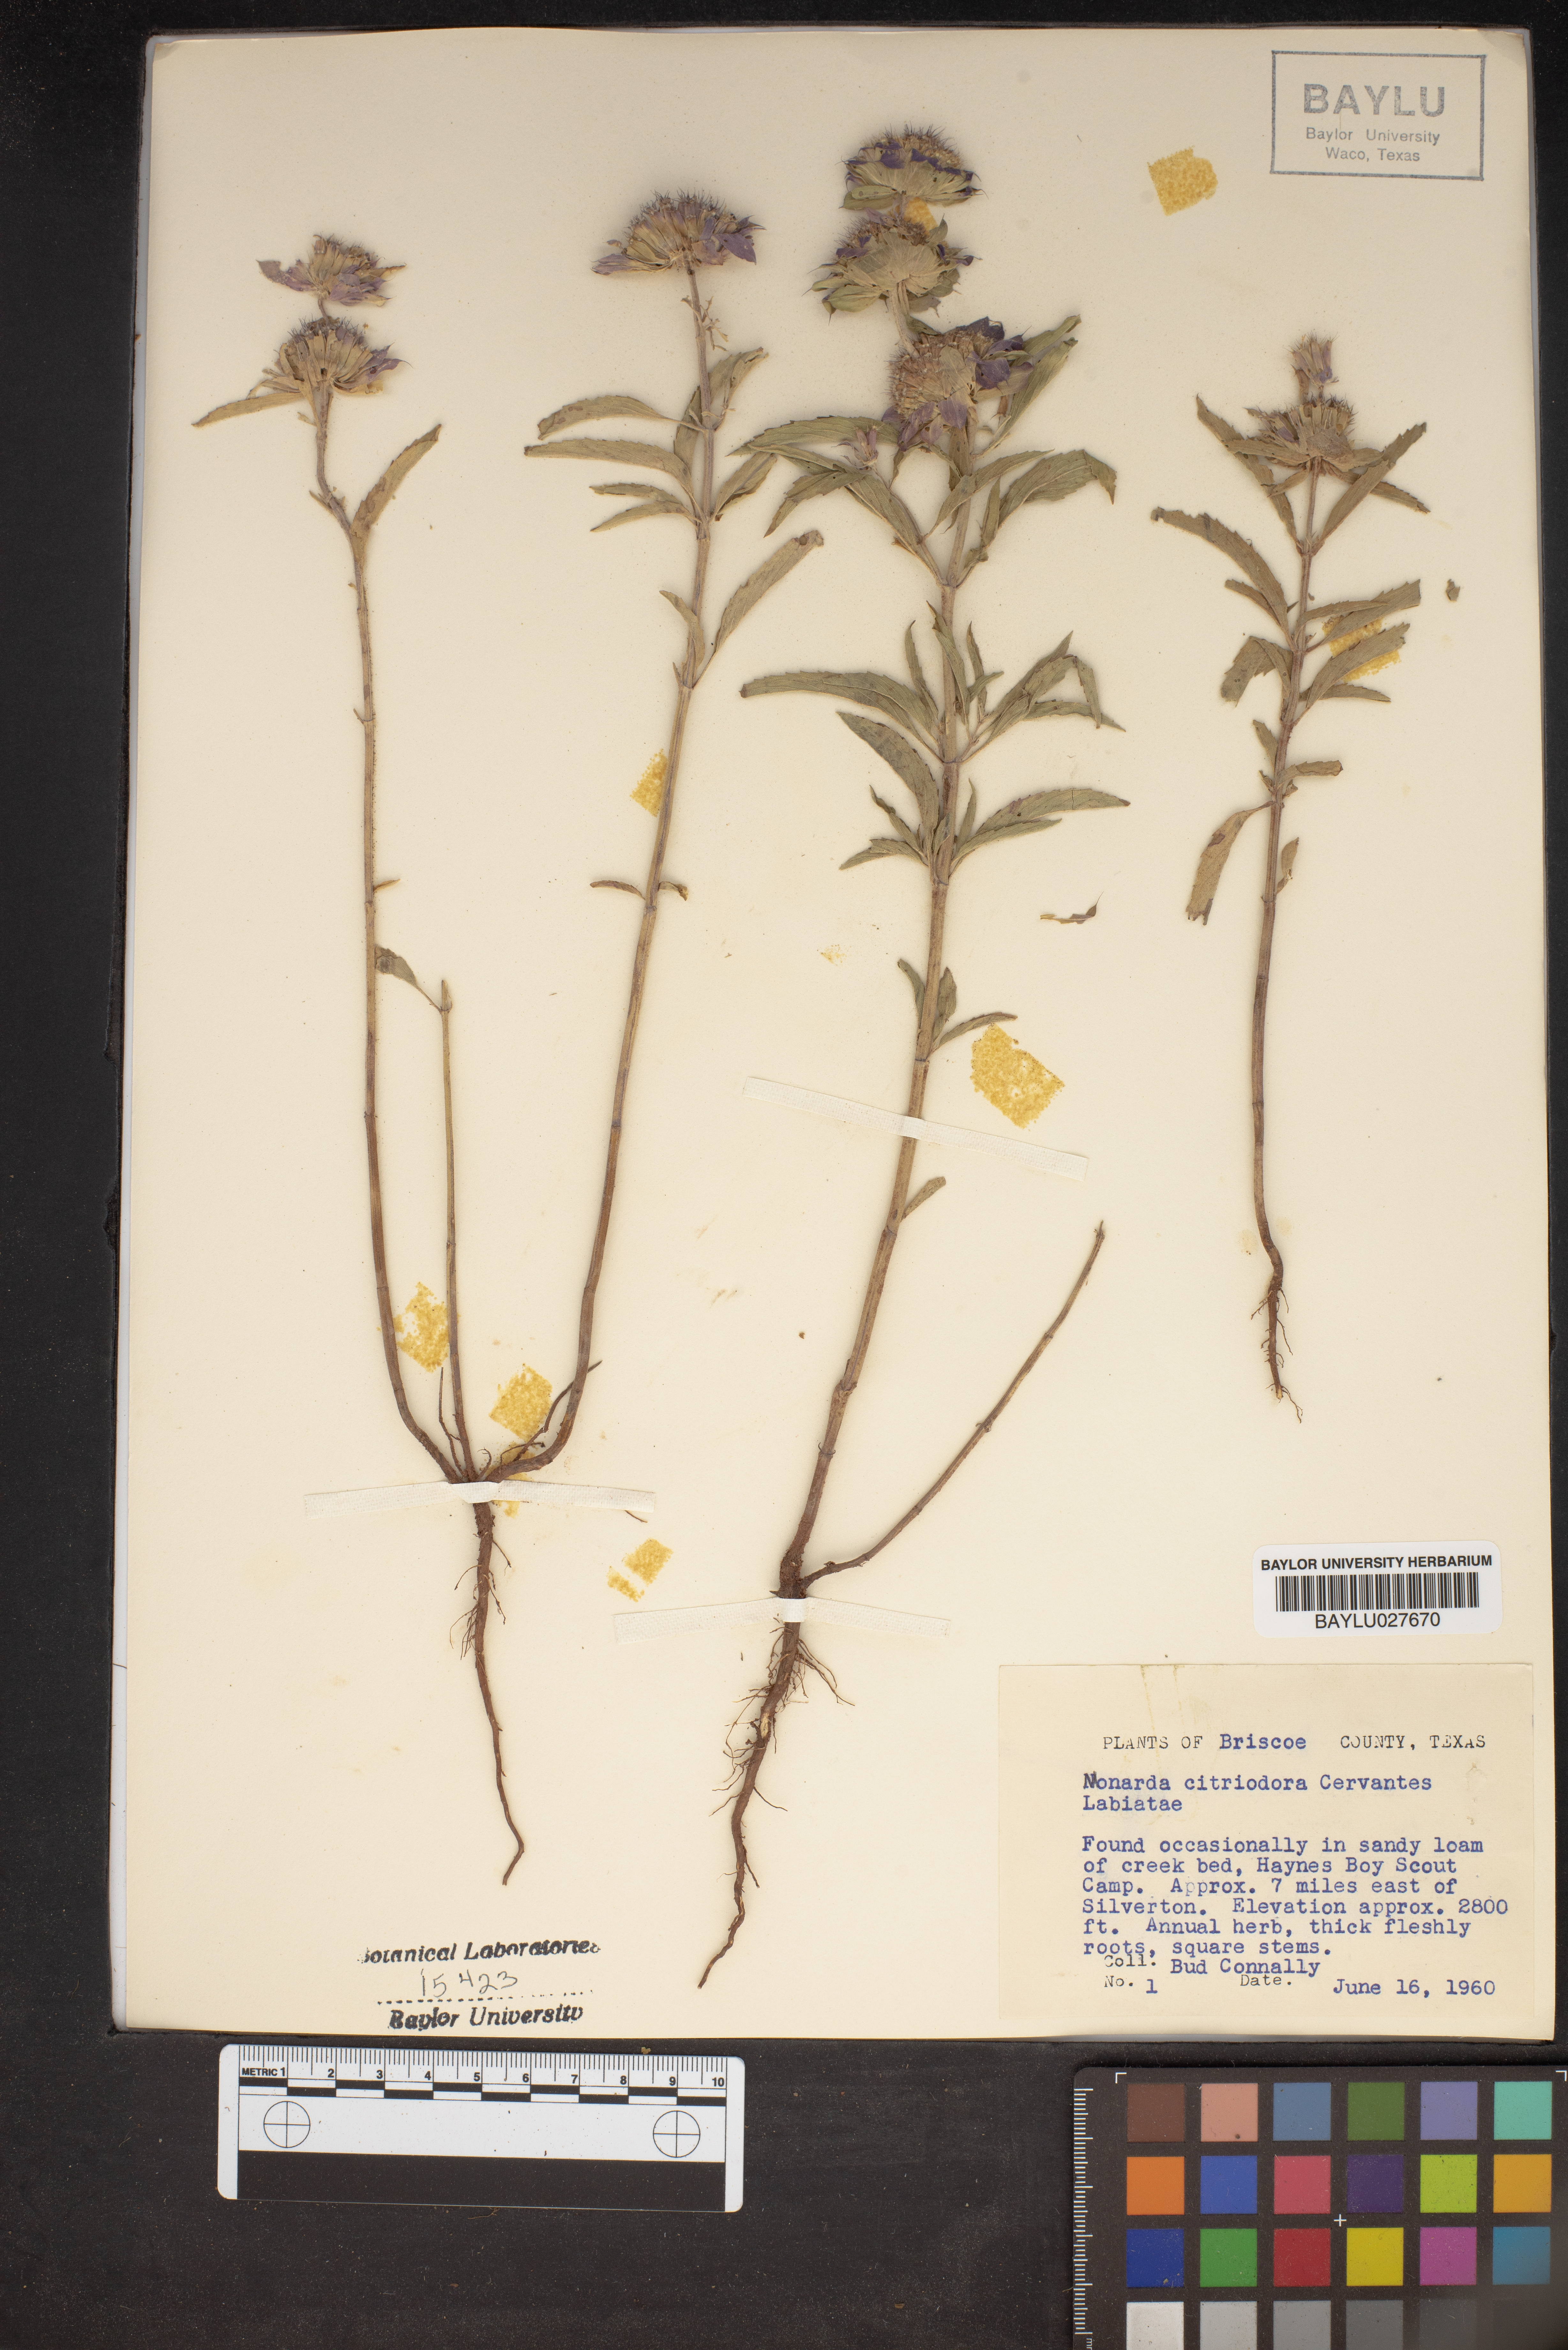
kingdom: Plantae
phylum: Tracheophyta
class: Magnoliopsida
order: Lamiales
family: Lamiaceae
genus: Monarda
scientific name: Monarda citriodora
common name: Lemon beebalm
